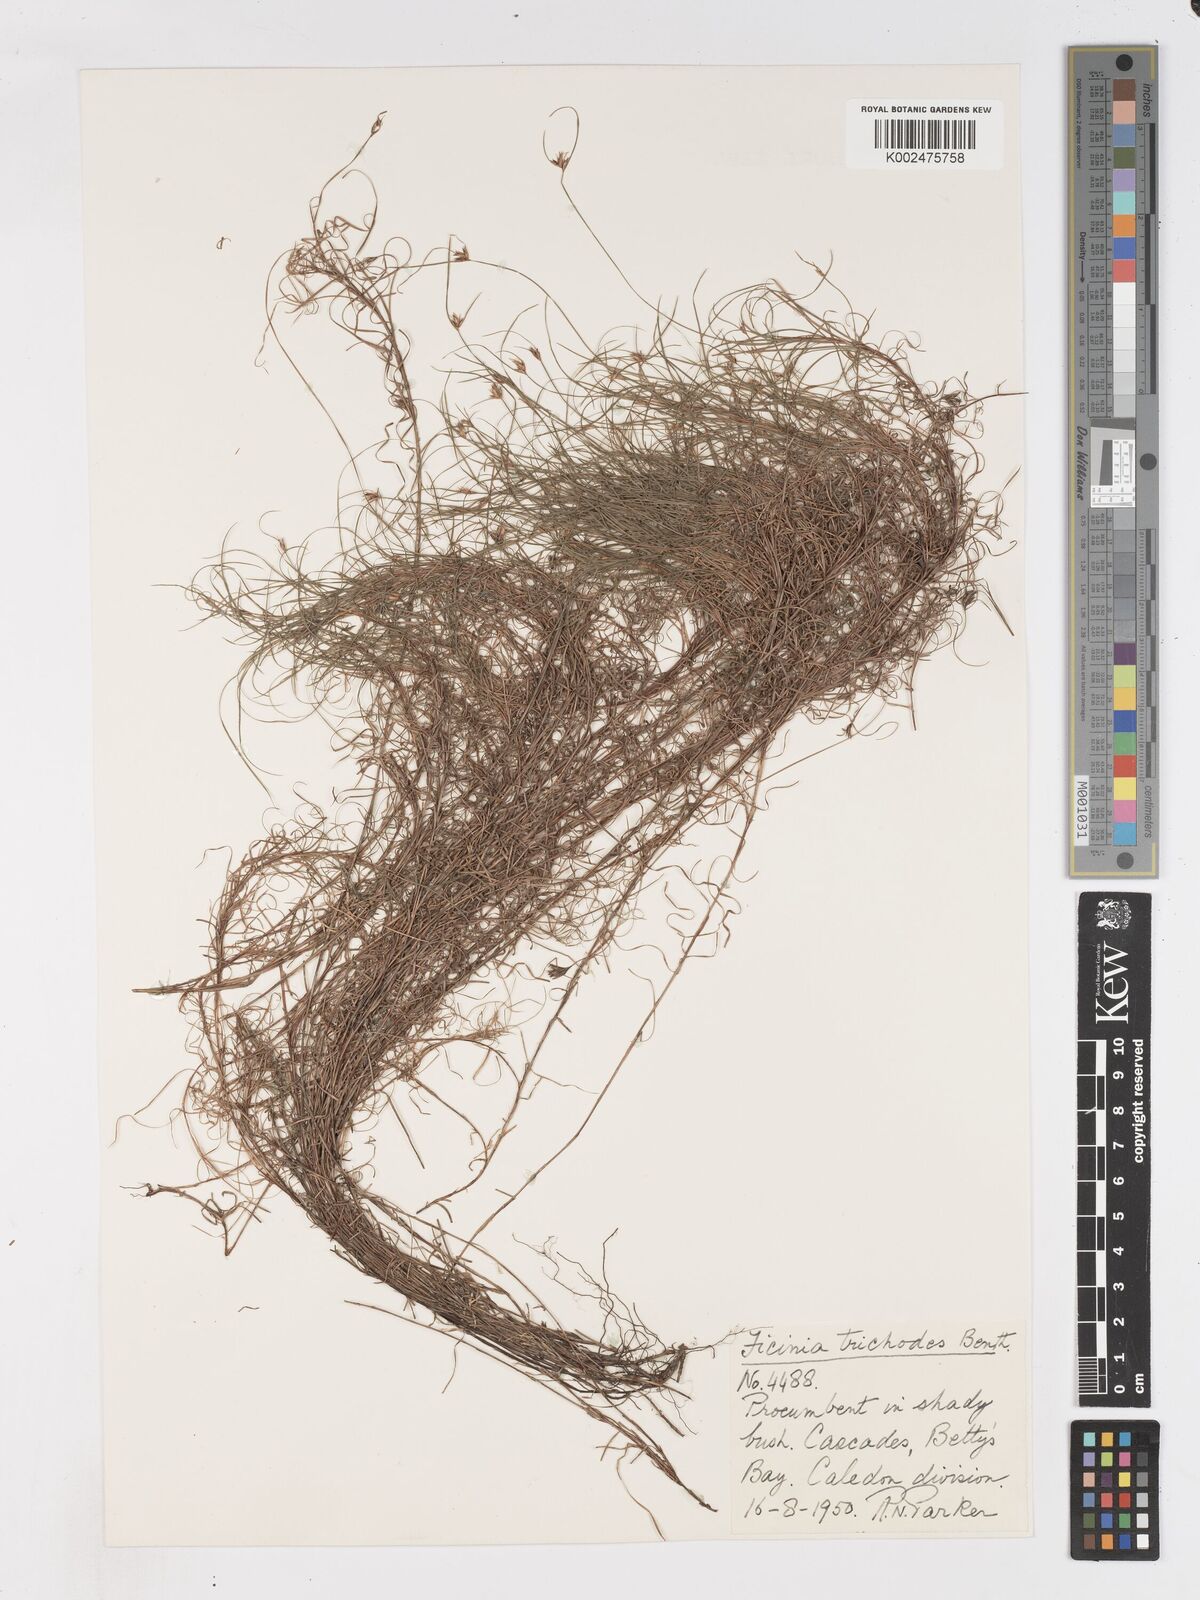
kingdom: Plantae
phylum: Tracheophyta
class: Liliopsida
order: Poales
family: Cyperaceae
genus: Ficinia
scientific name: Ficinia ramosissima
